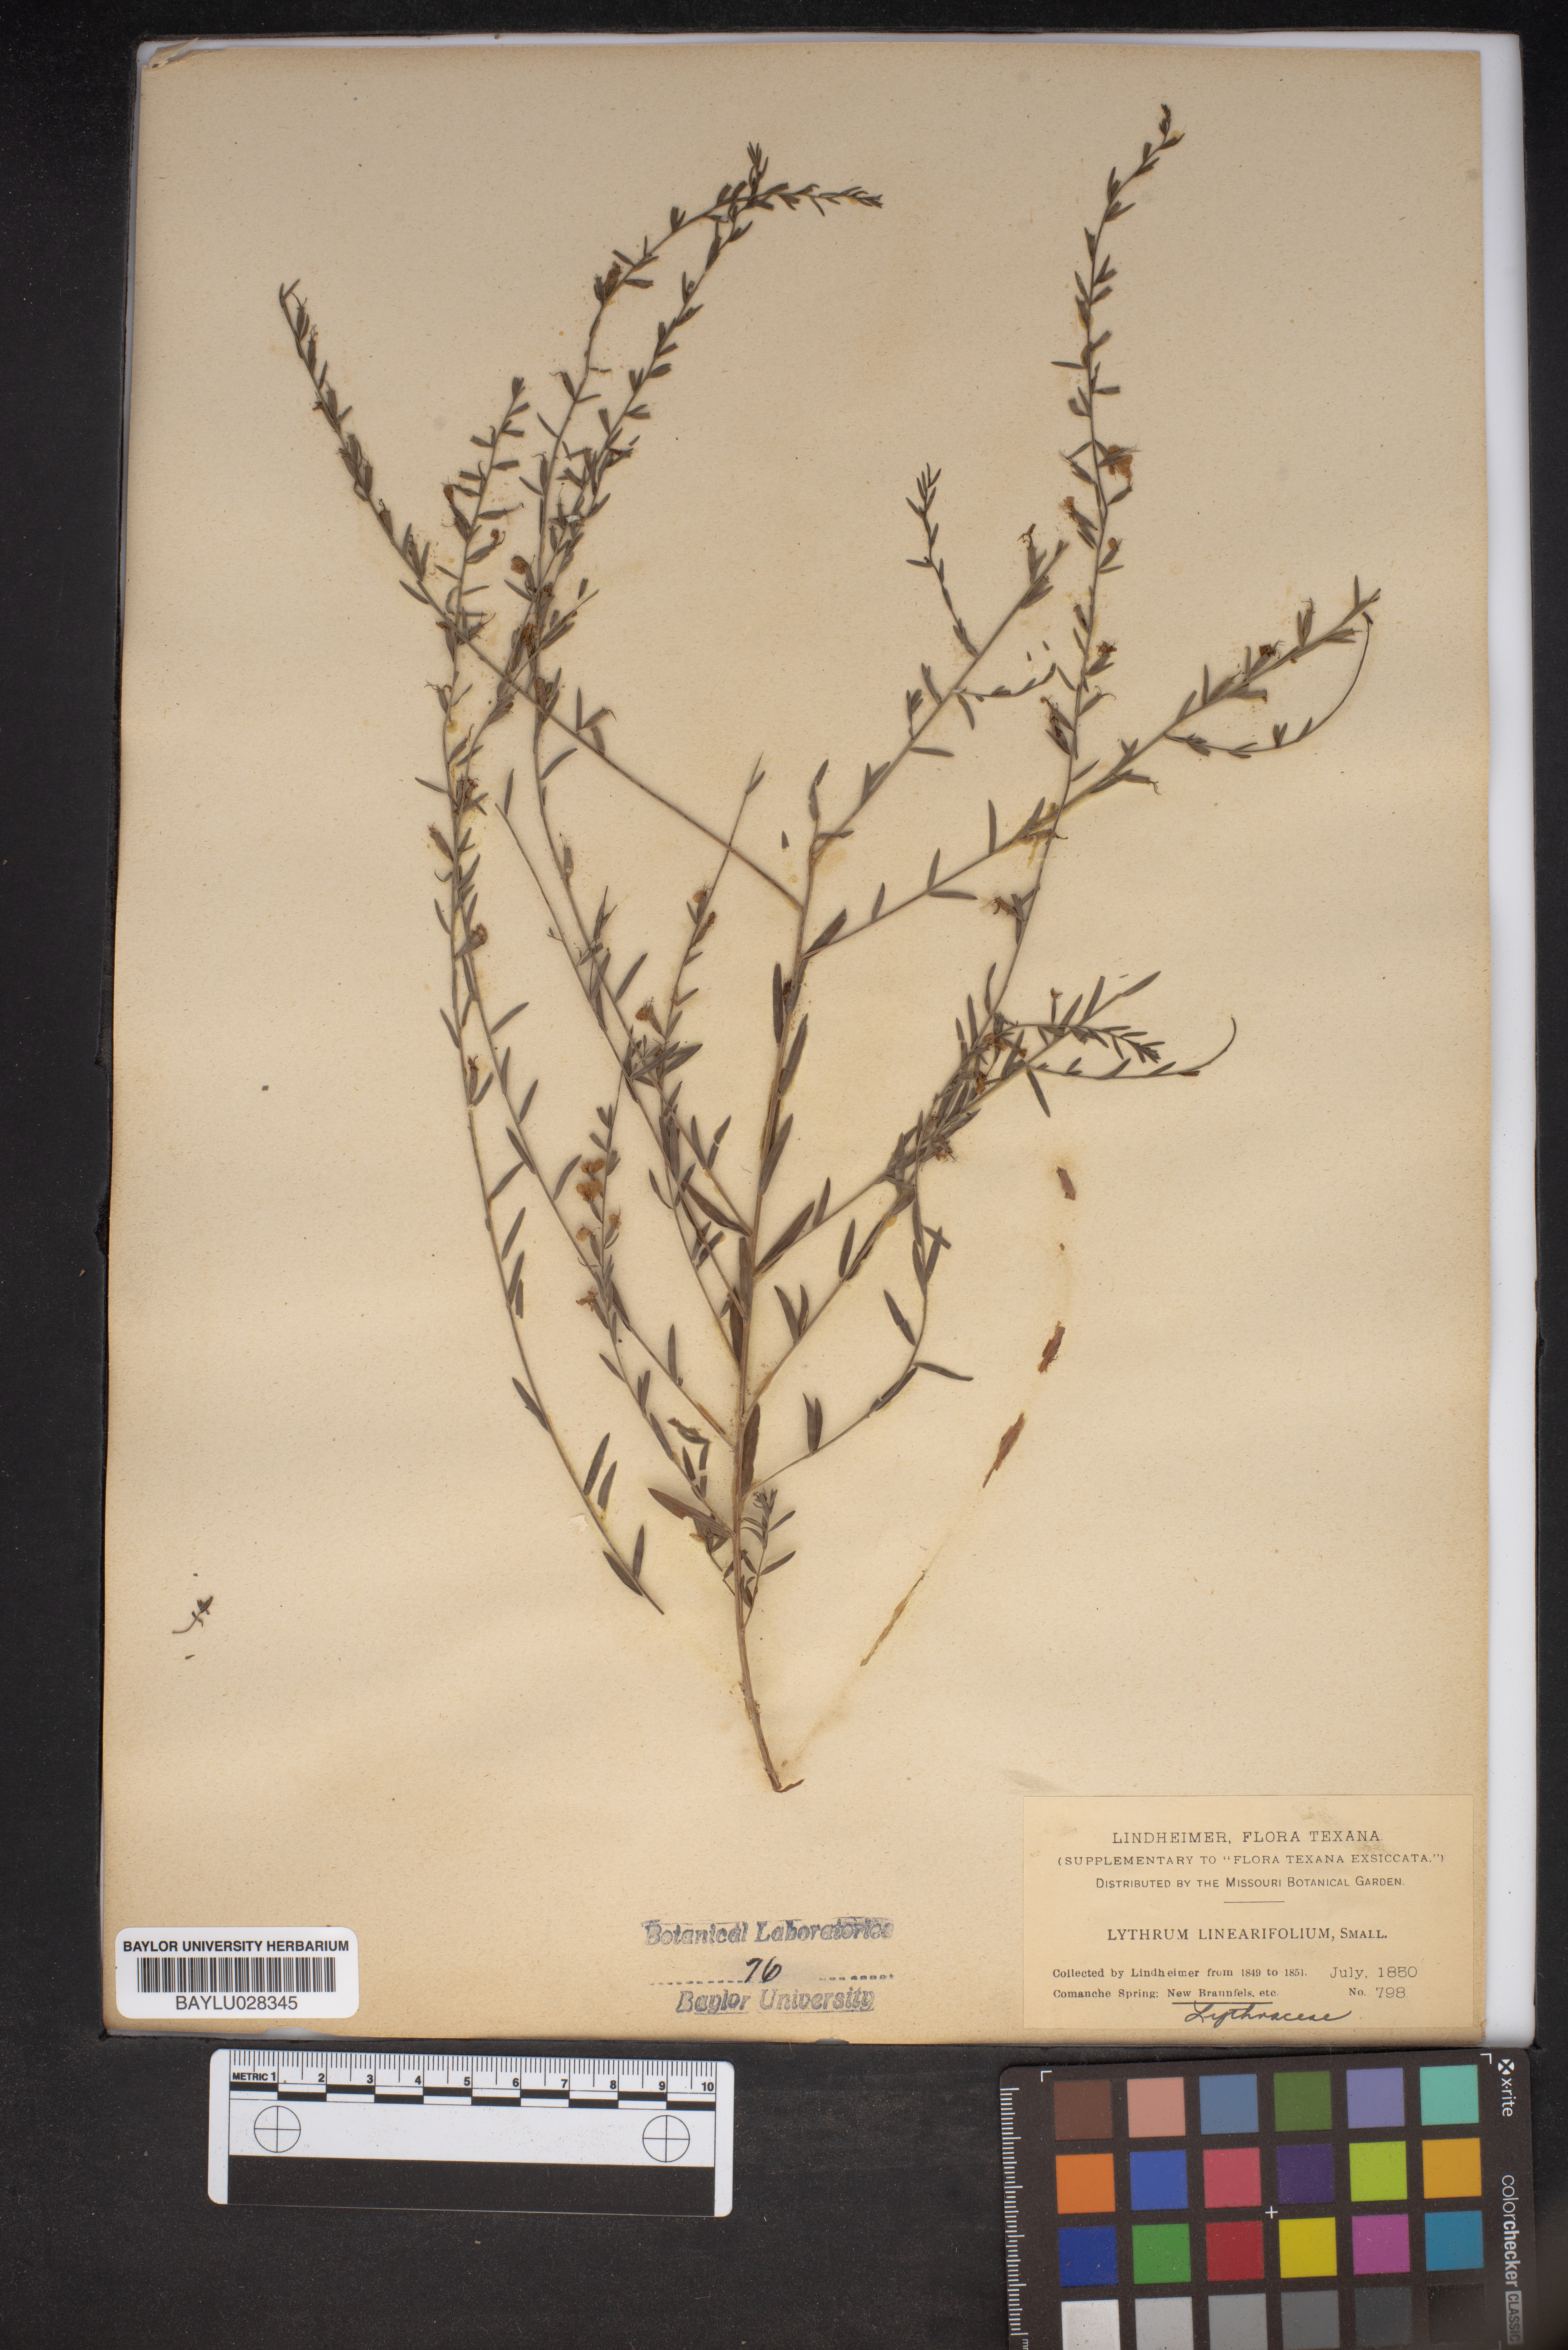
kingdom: Plantae
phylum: Tracheophyta
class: Magnoliopsida
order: Myrtales
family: Lythraceae
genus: Lythrum
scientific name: Lythrum linifolium
